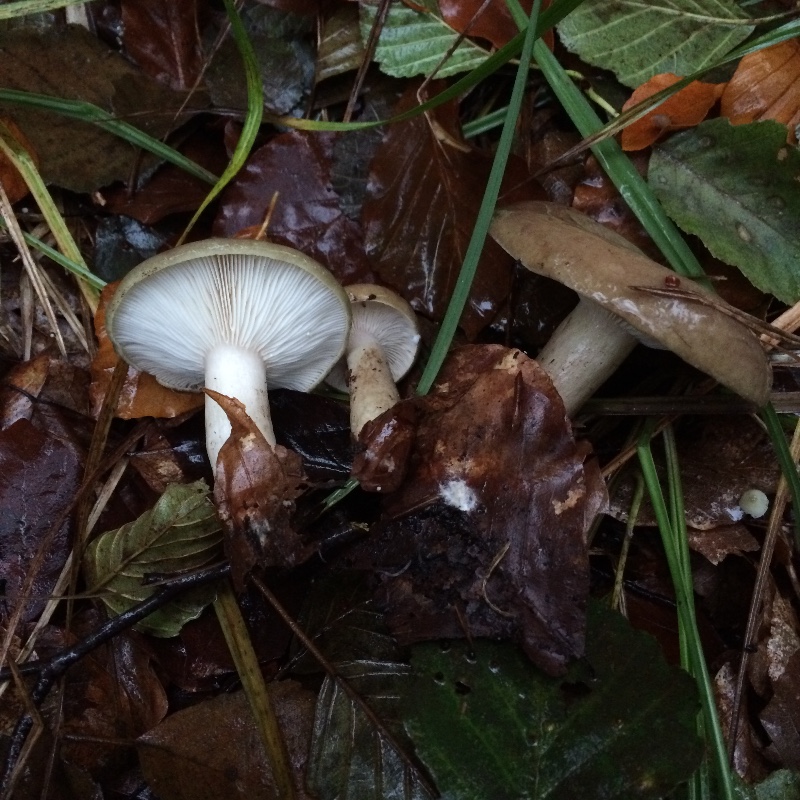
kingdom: Fungi
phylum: Basidiomycota
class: Agaricomycetes
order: Russulales
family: Russulaceae
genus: Lactarius
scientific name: Lactarius blennius
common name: dråbeplettet mælkehat
